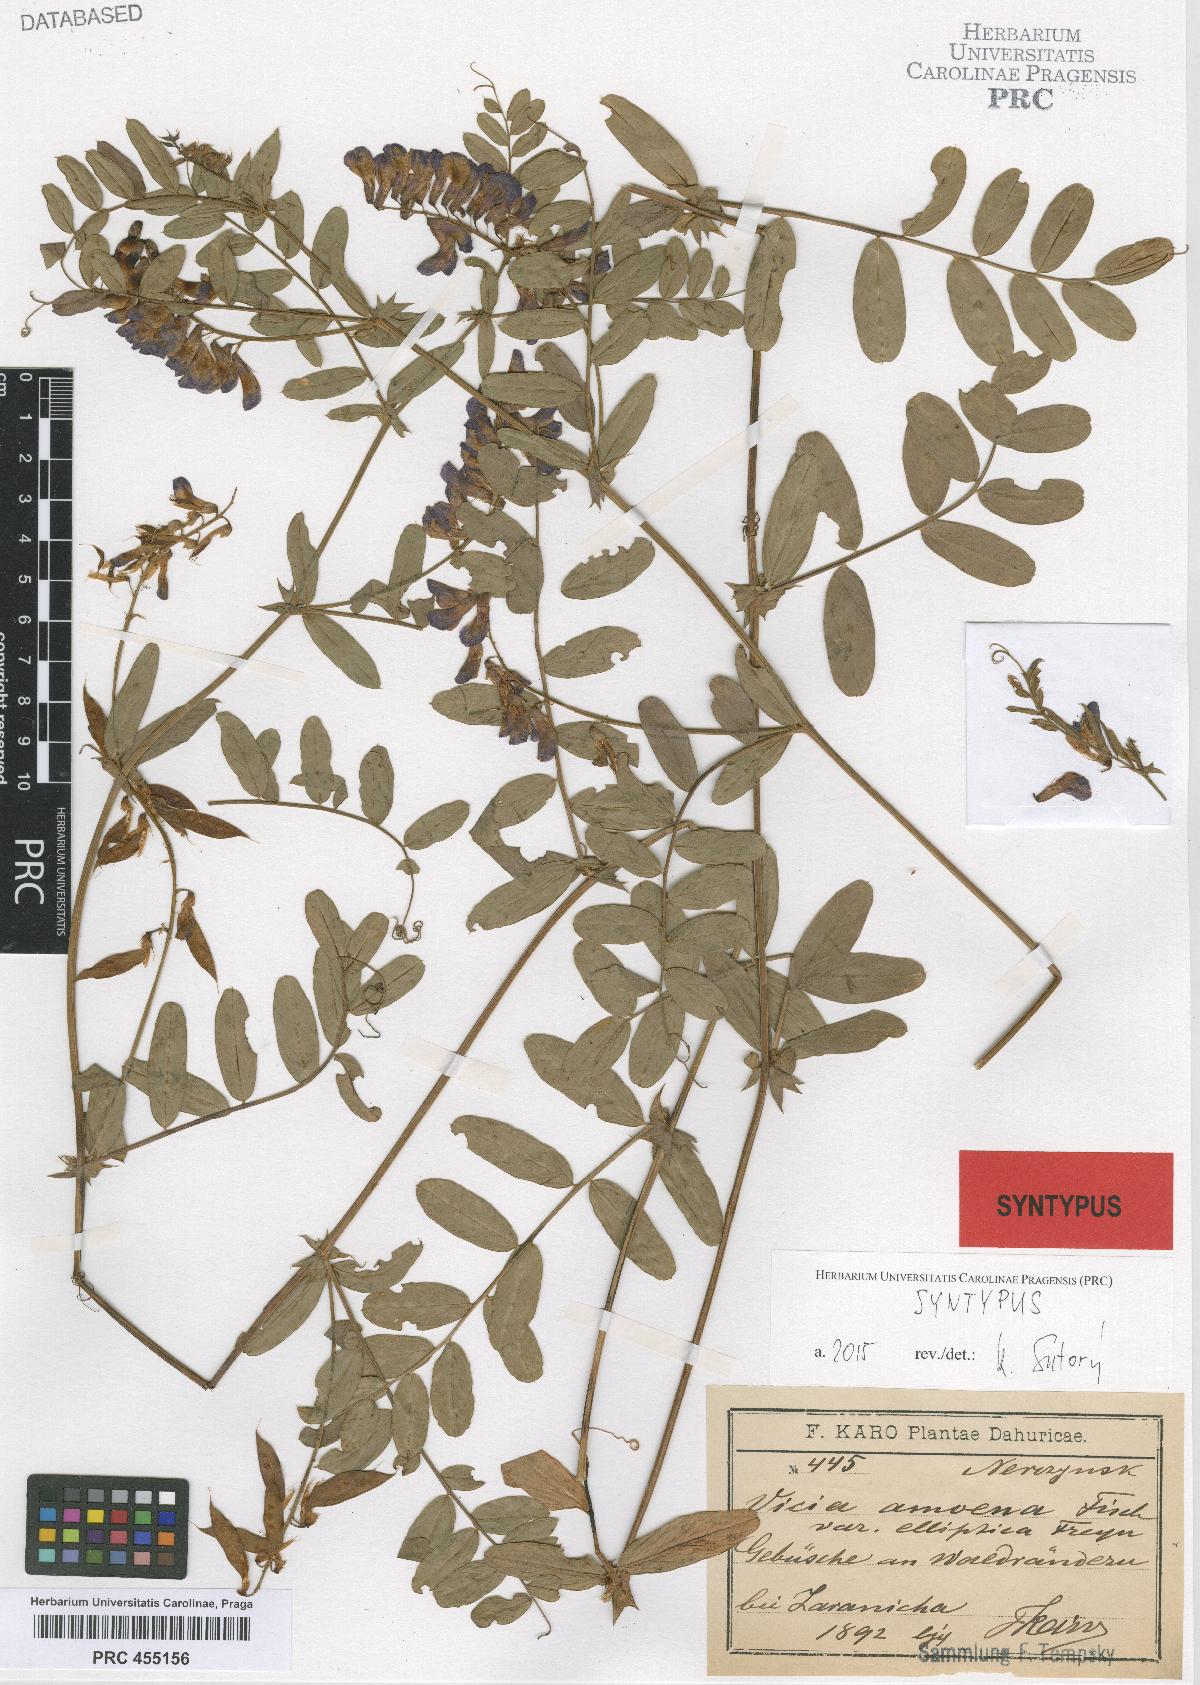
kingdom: Plantae
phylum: Tracheophyta
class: Magnoliopsida
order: Fabales
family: Fabaceae
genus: Vicia
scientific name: Vicia amoena
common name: Cheder ebs
